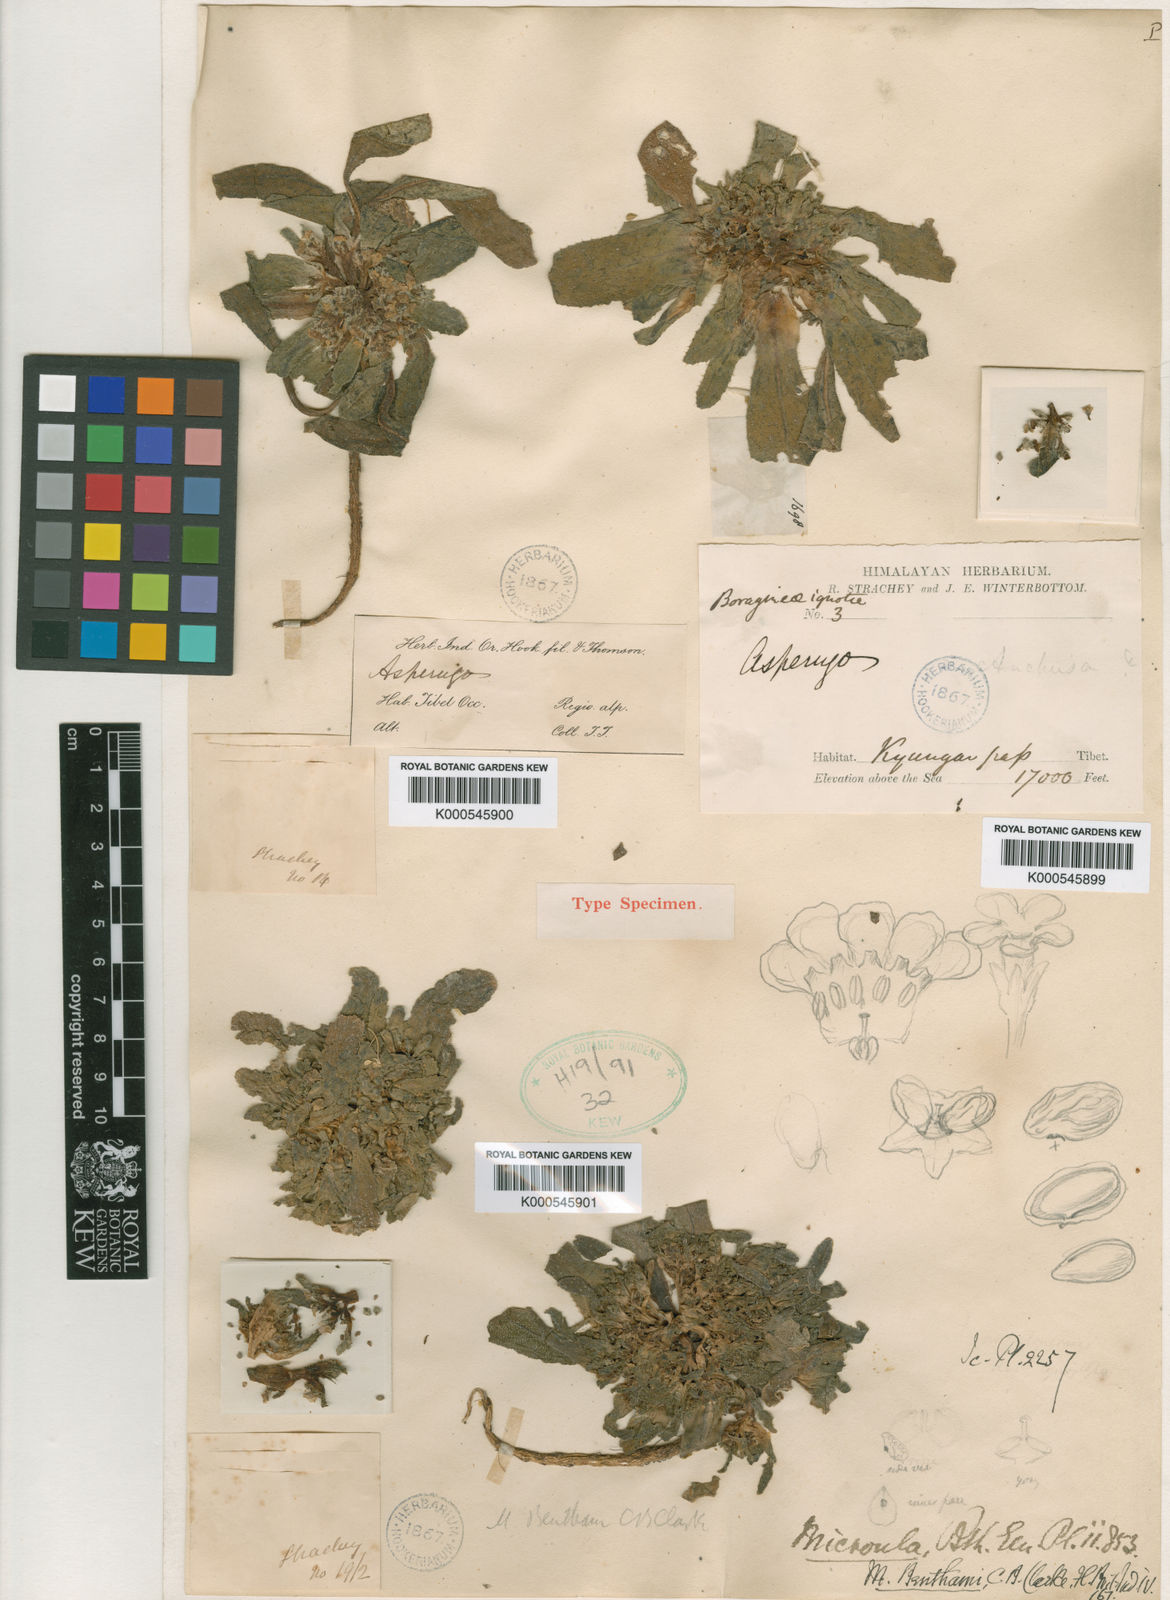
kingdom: Plantae
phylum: Tracheophyta
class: Magnoliopsida
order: Boraginales
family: Boraginaceae
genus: Microula
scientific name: Microula
